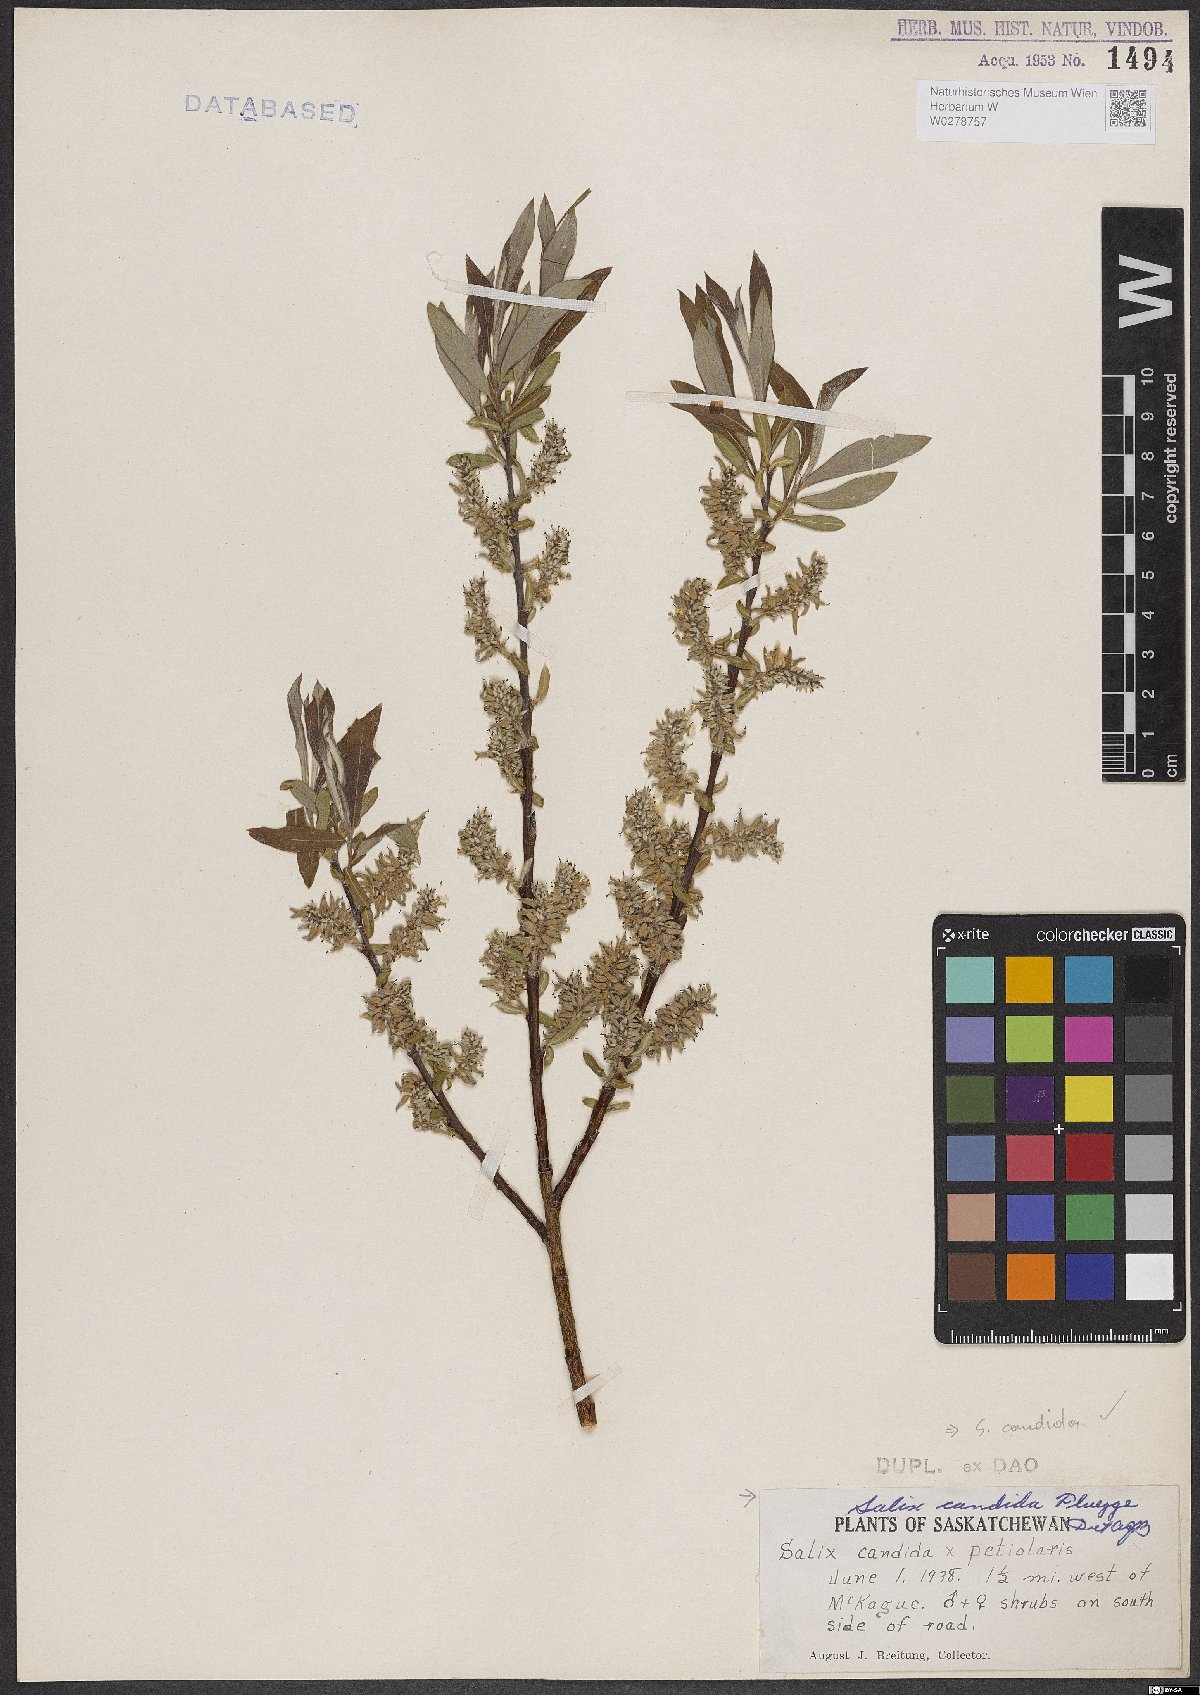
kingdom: Plantae
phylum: Tracheophyta
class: Magnoliopsida
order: Malpighiales
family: Salicaceae
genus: Salix
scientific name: Salix candida
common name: Hoary willow
